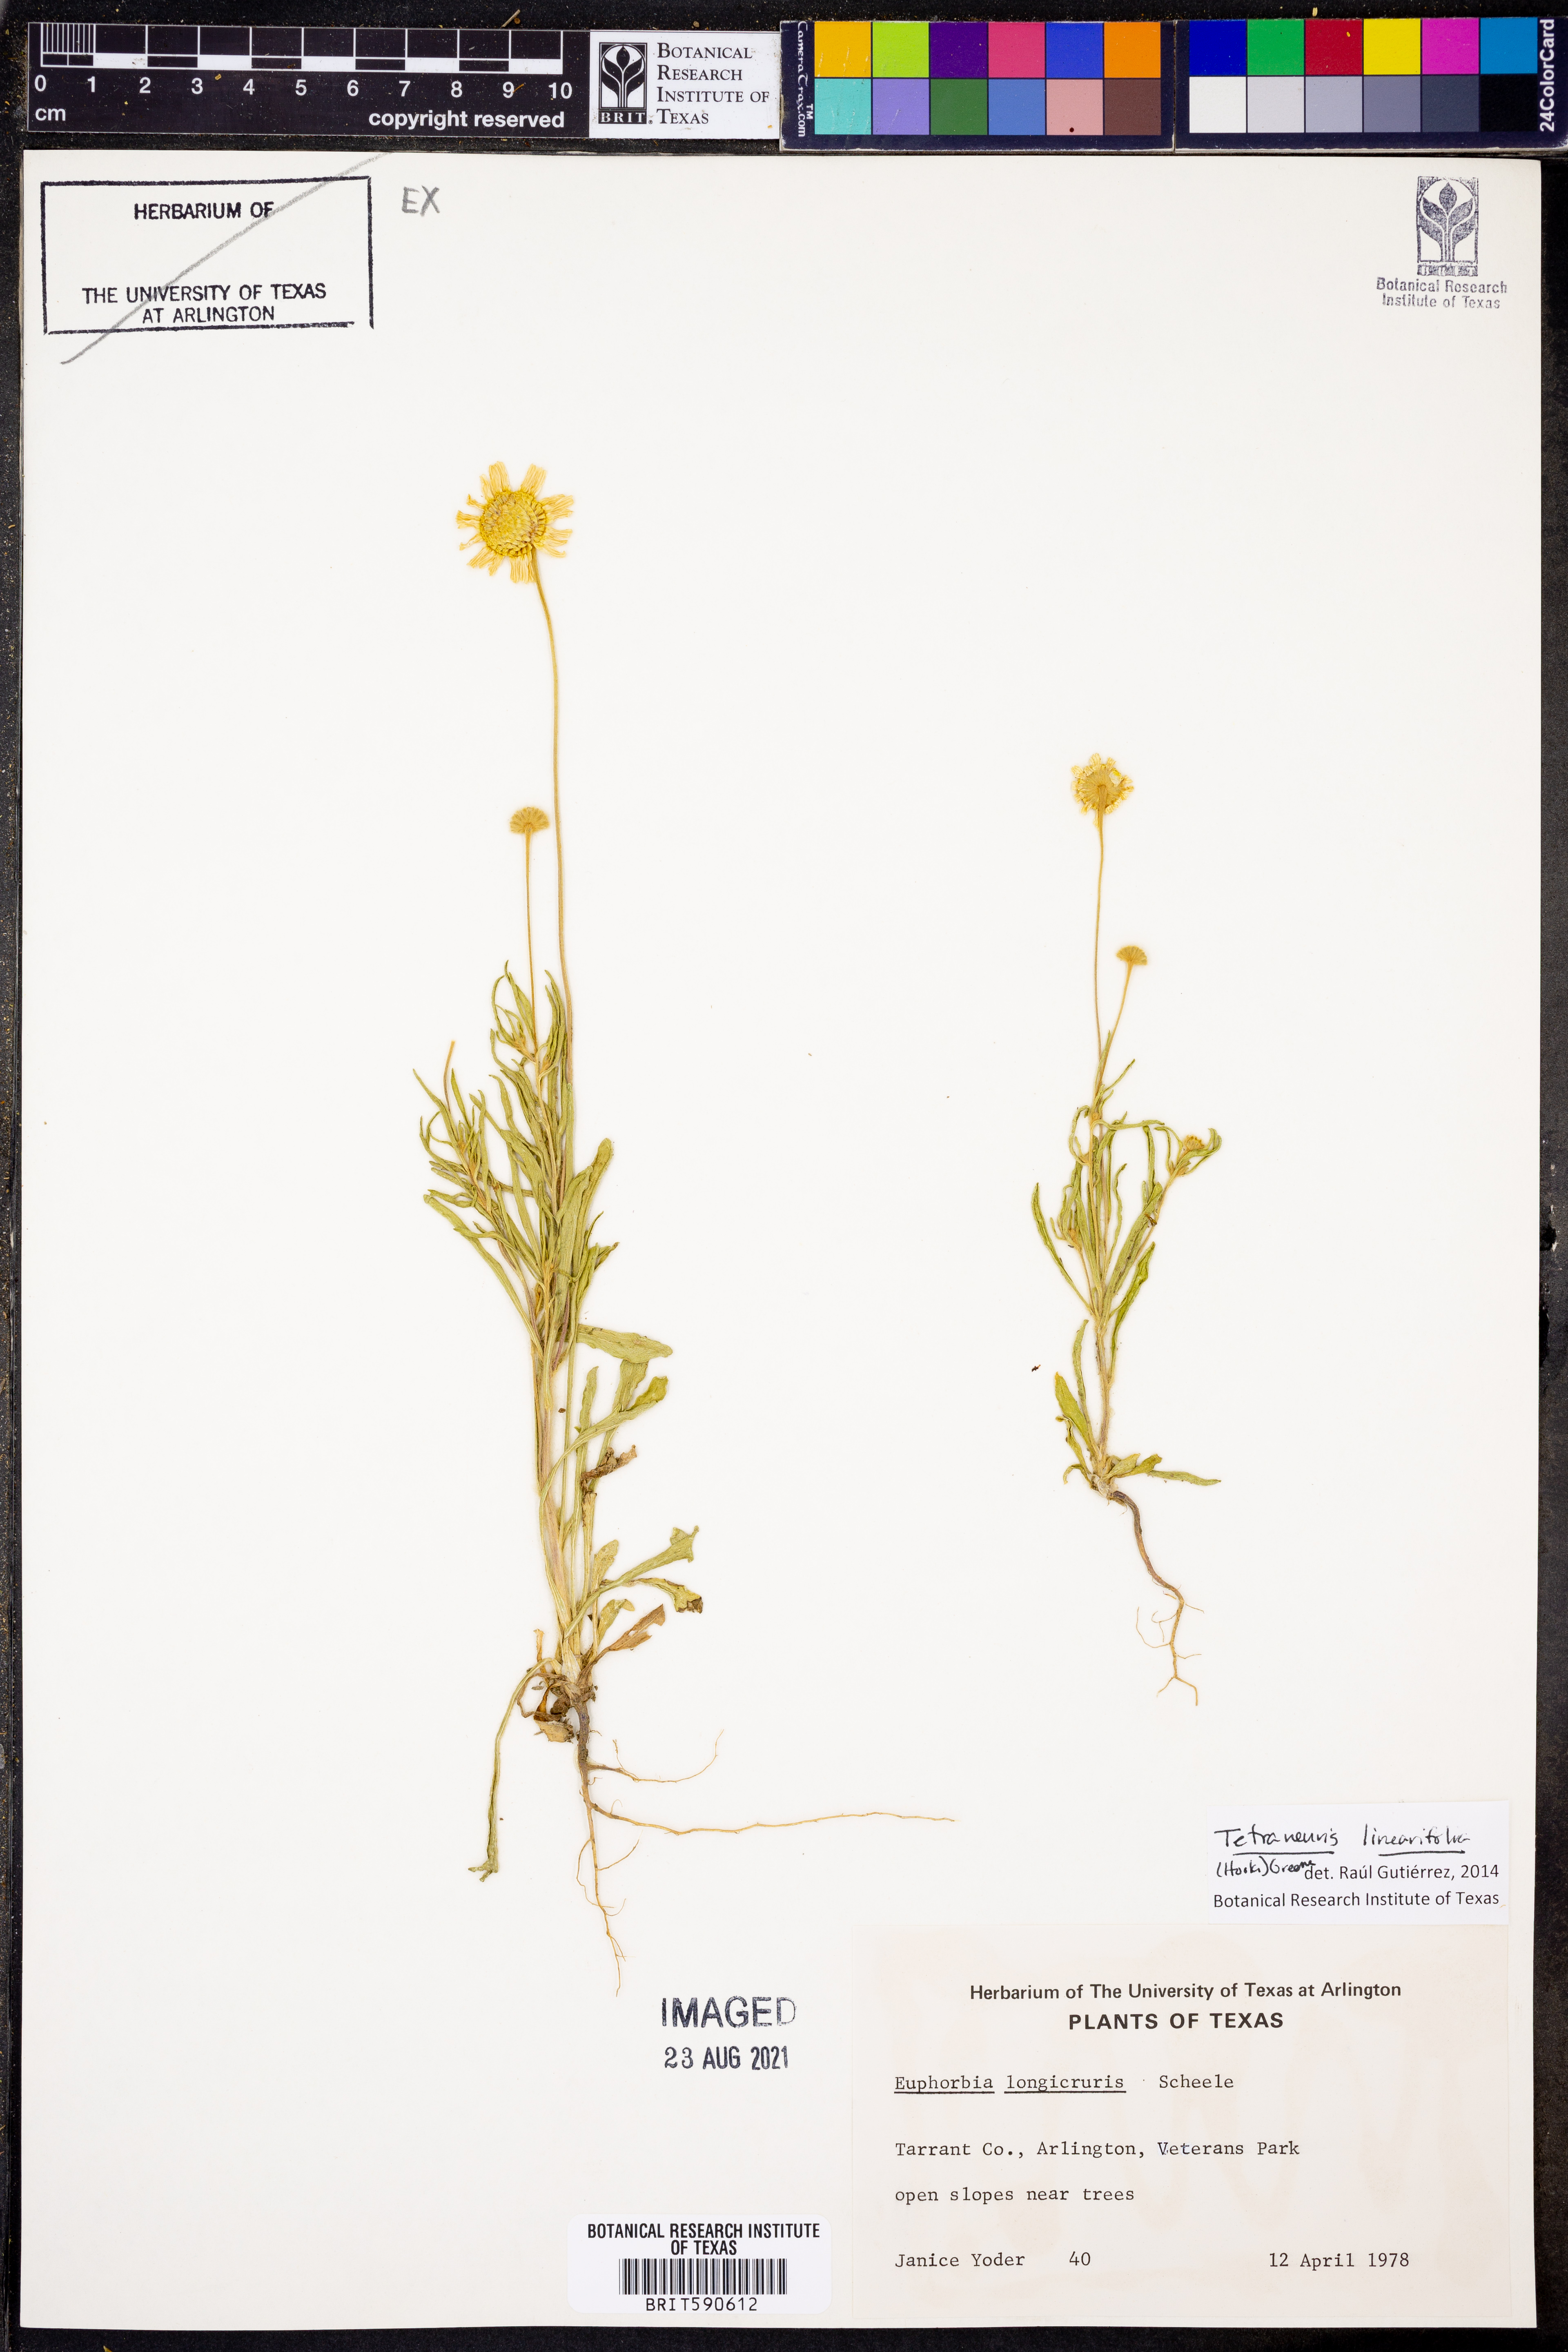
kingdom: Plantae
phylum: Tracheophyta
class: Magnoliopsida
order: Asterales
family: Asteraceae
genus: Tetraneuris
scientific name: Tetraneuris linearifolia
